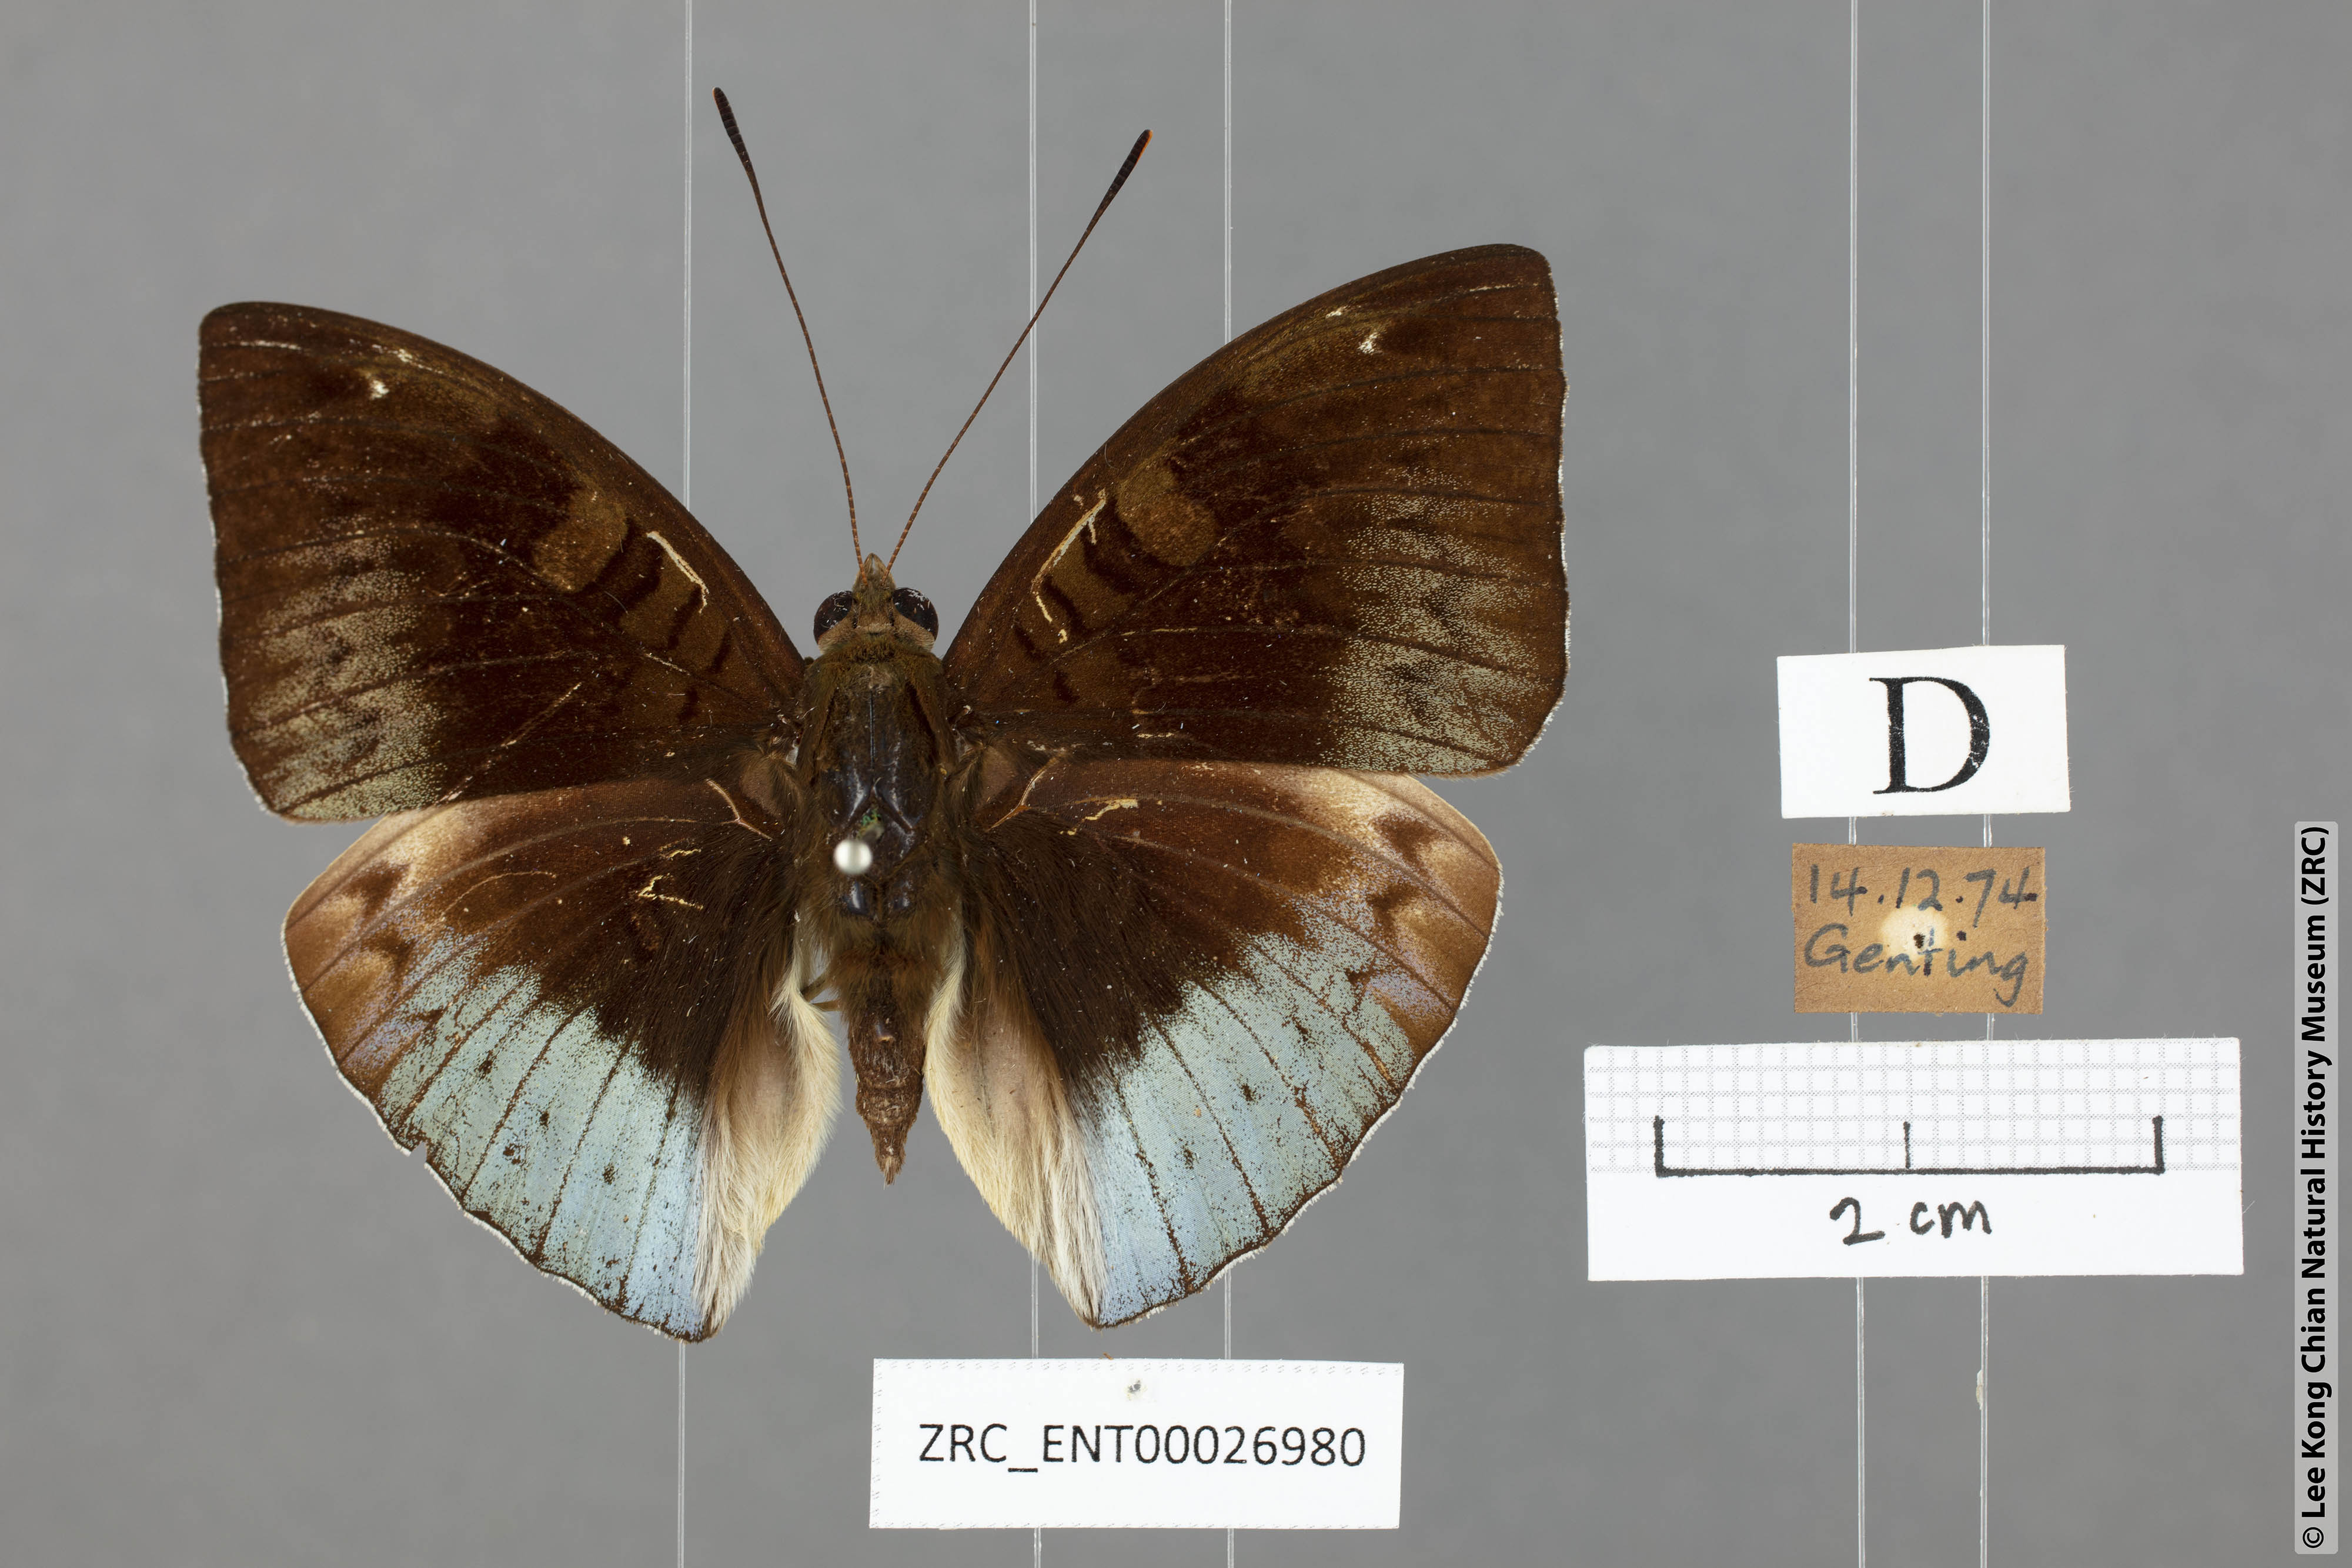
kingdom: Animalia
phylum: Arthropoda
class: Insecta
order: Lepidoptera
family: Nymphalidae
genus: Euthalia
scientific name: Euthalia monina
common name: Powdered baron
